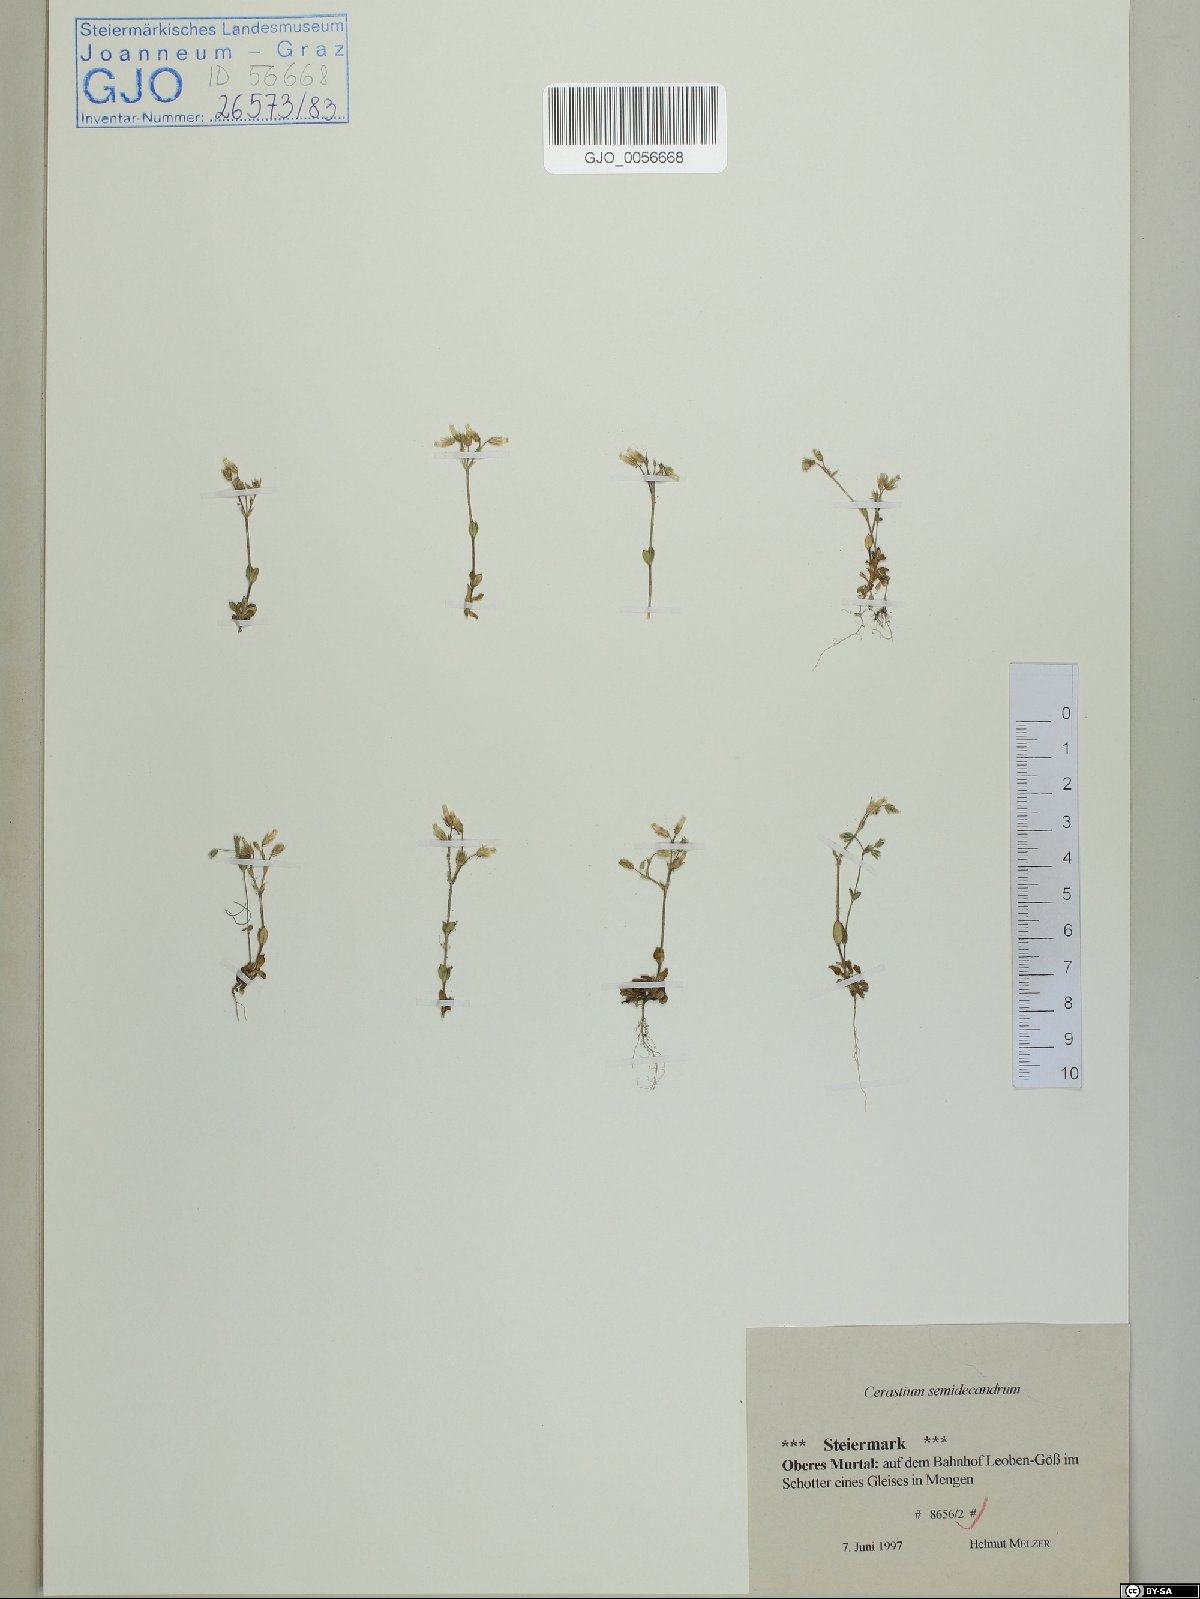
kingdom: Plantae
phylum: Tracheophyta
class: Magnoliopsida
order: Caryophyllales
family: Caryophyllaceae
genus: Cerastium
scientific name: Cerastium semidecandrum
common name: Little mouse-ear
